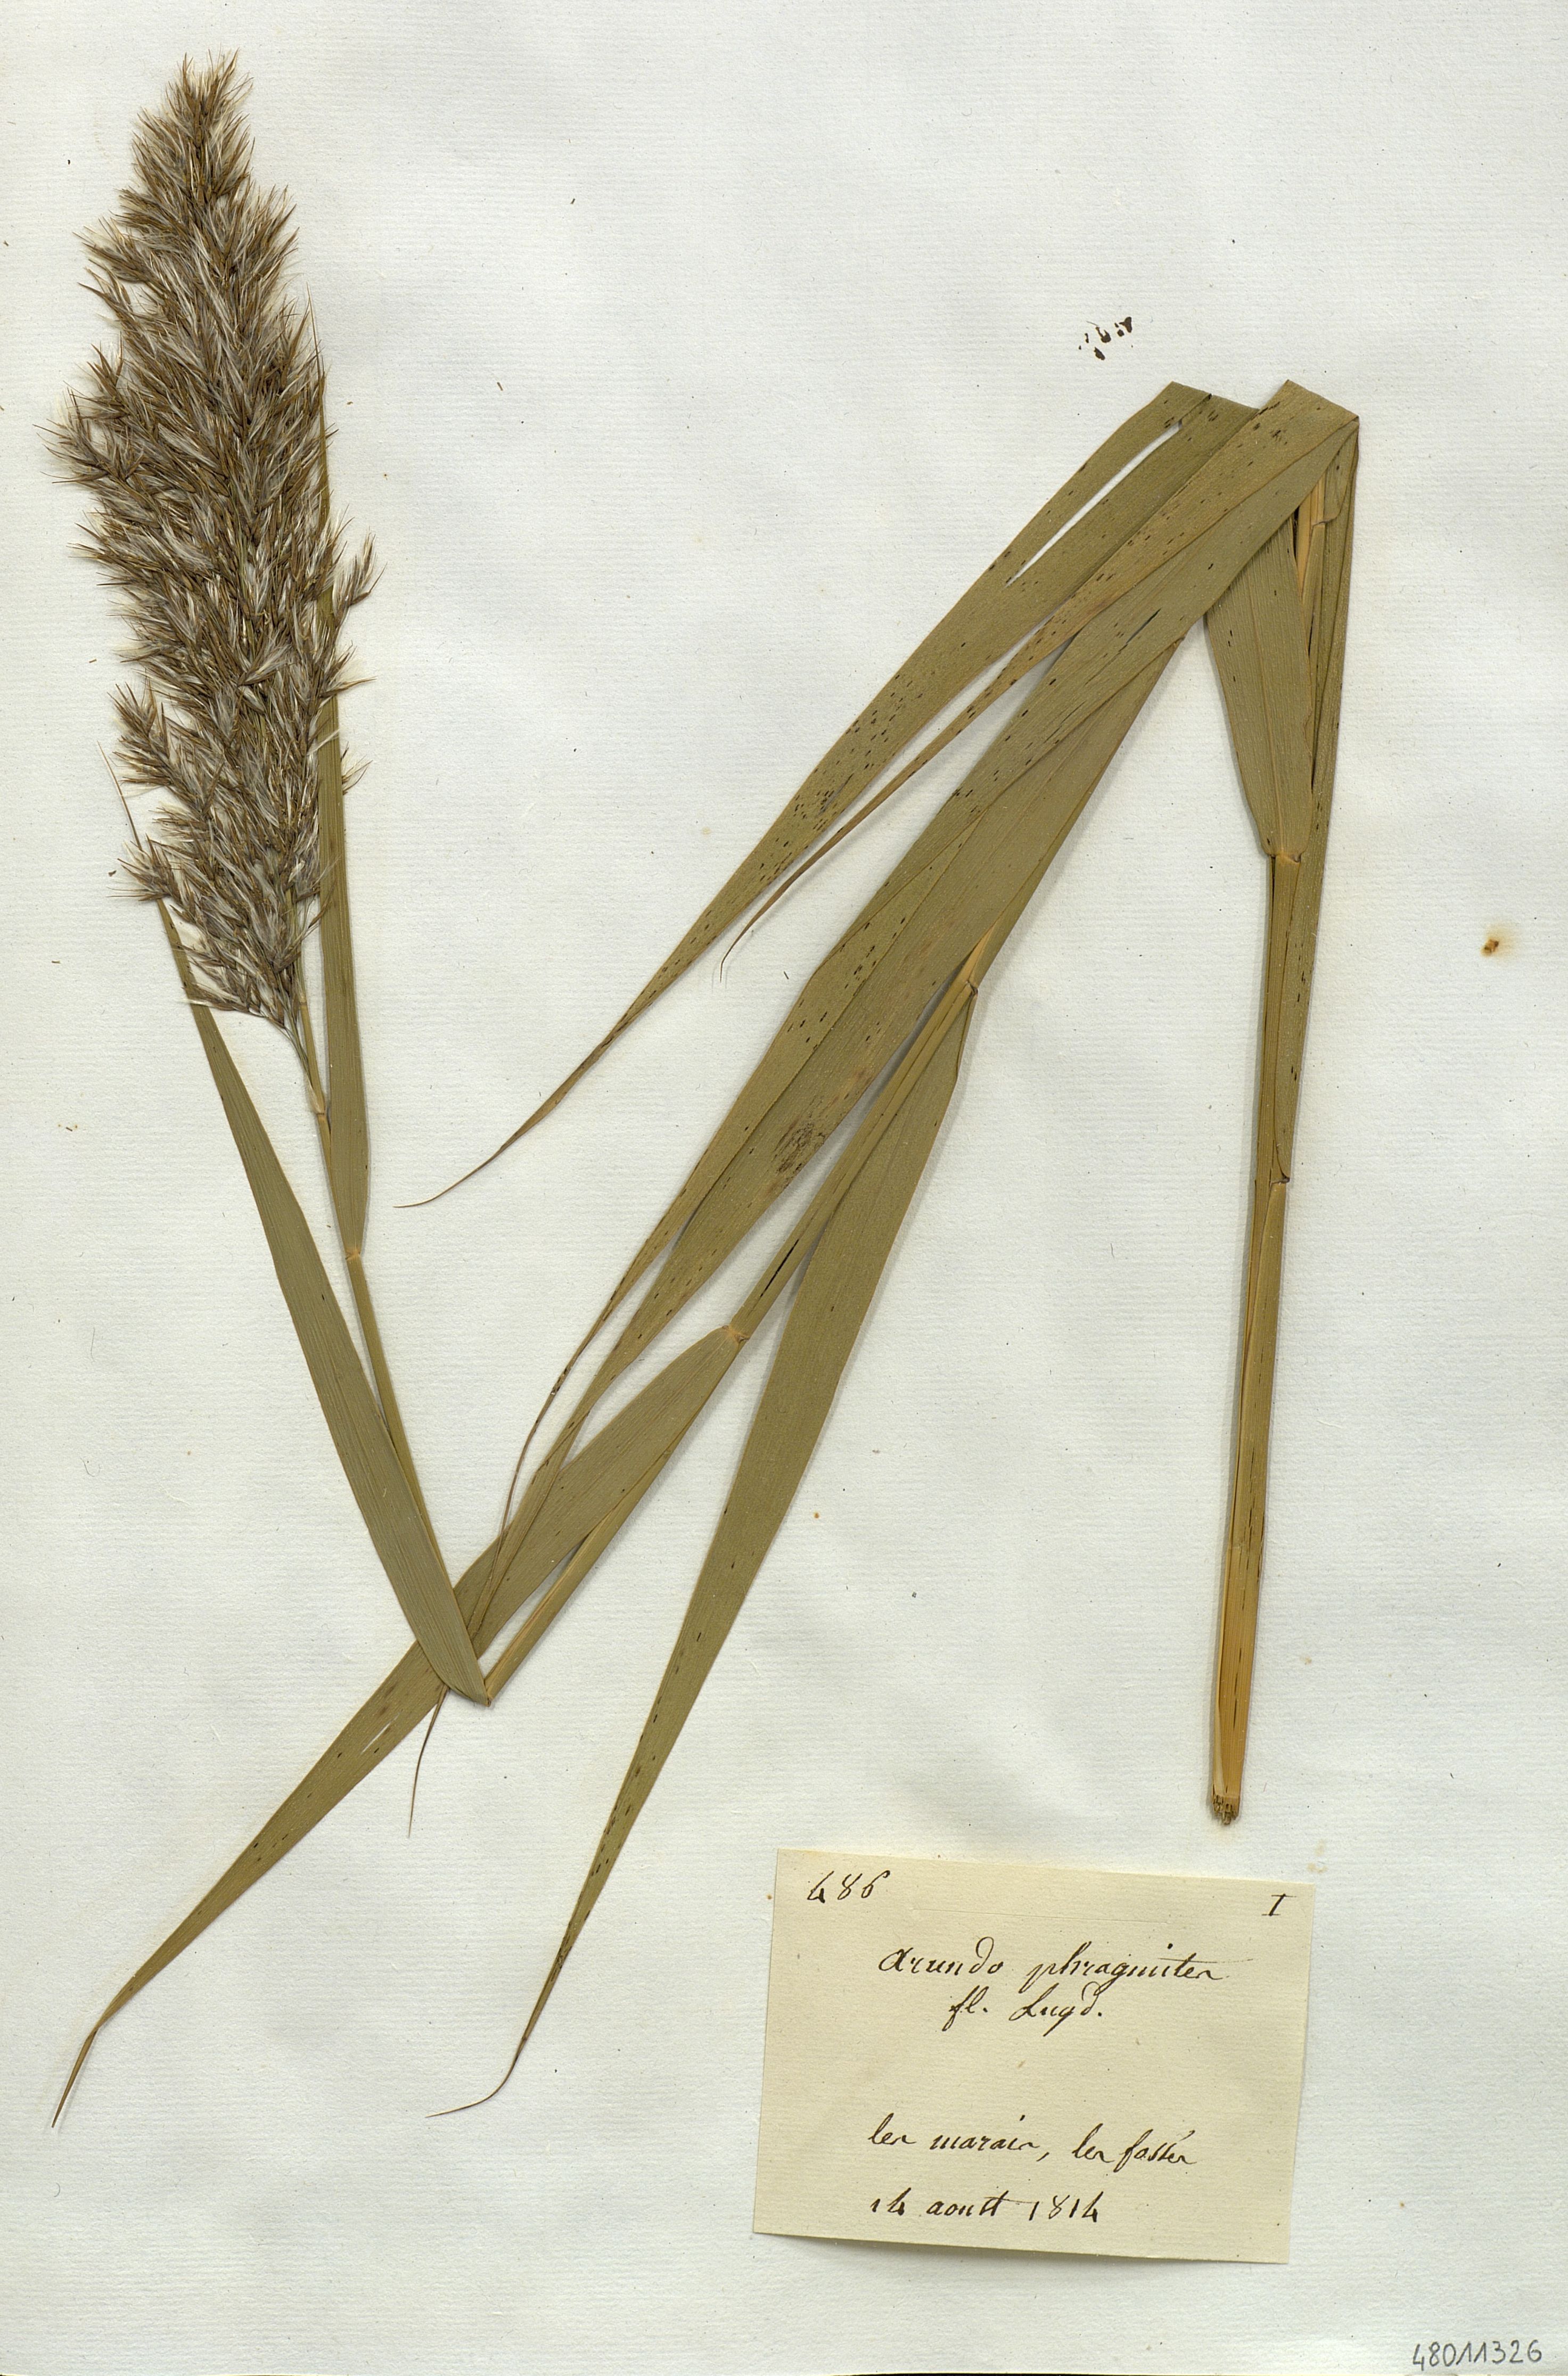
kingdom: Plantae
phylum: Tracheophyta
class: Liliopsida
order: Poales
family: Poaceae
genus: Phragmites
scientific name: Phragmites australis
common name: Common reed
